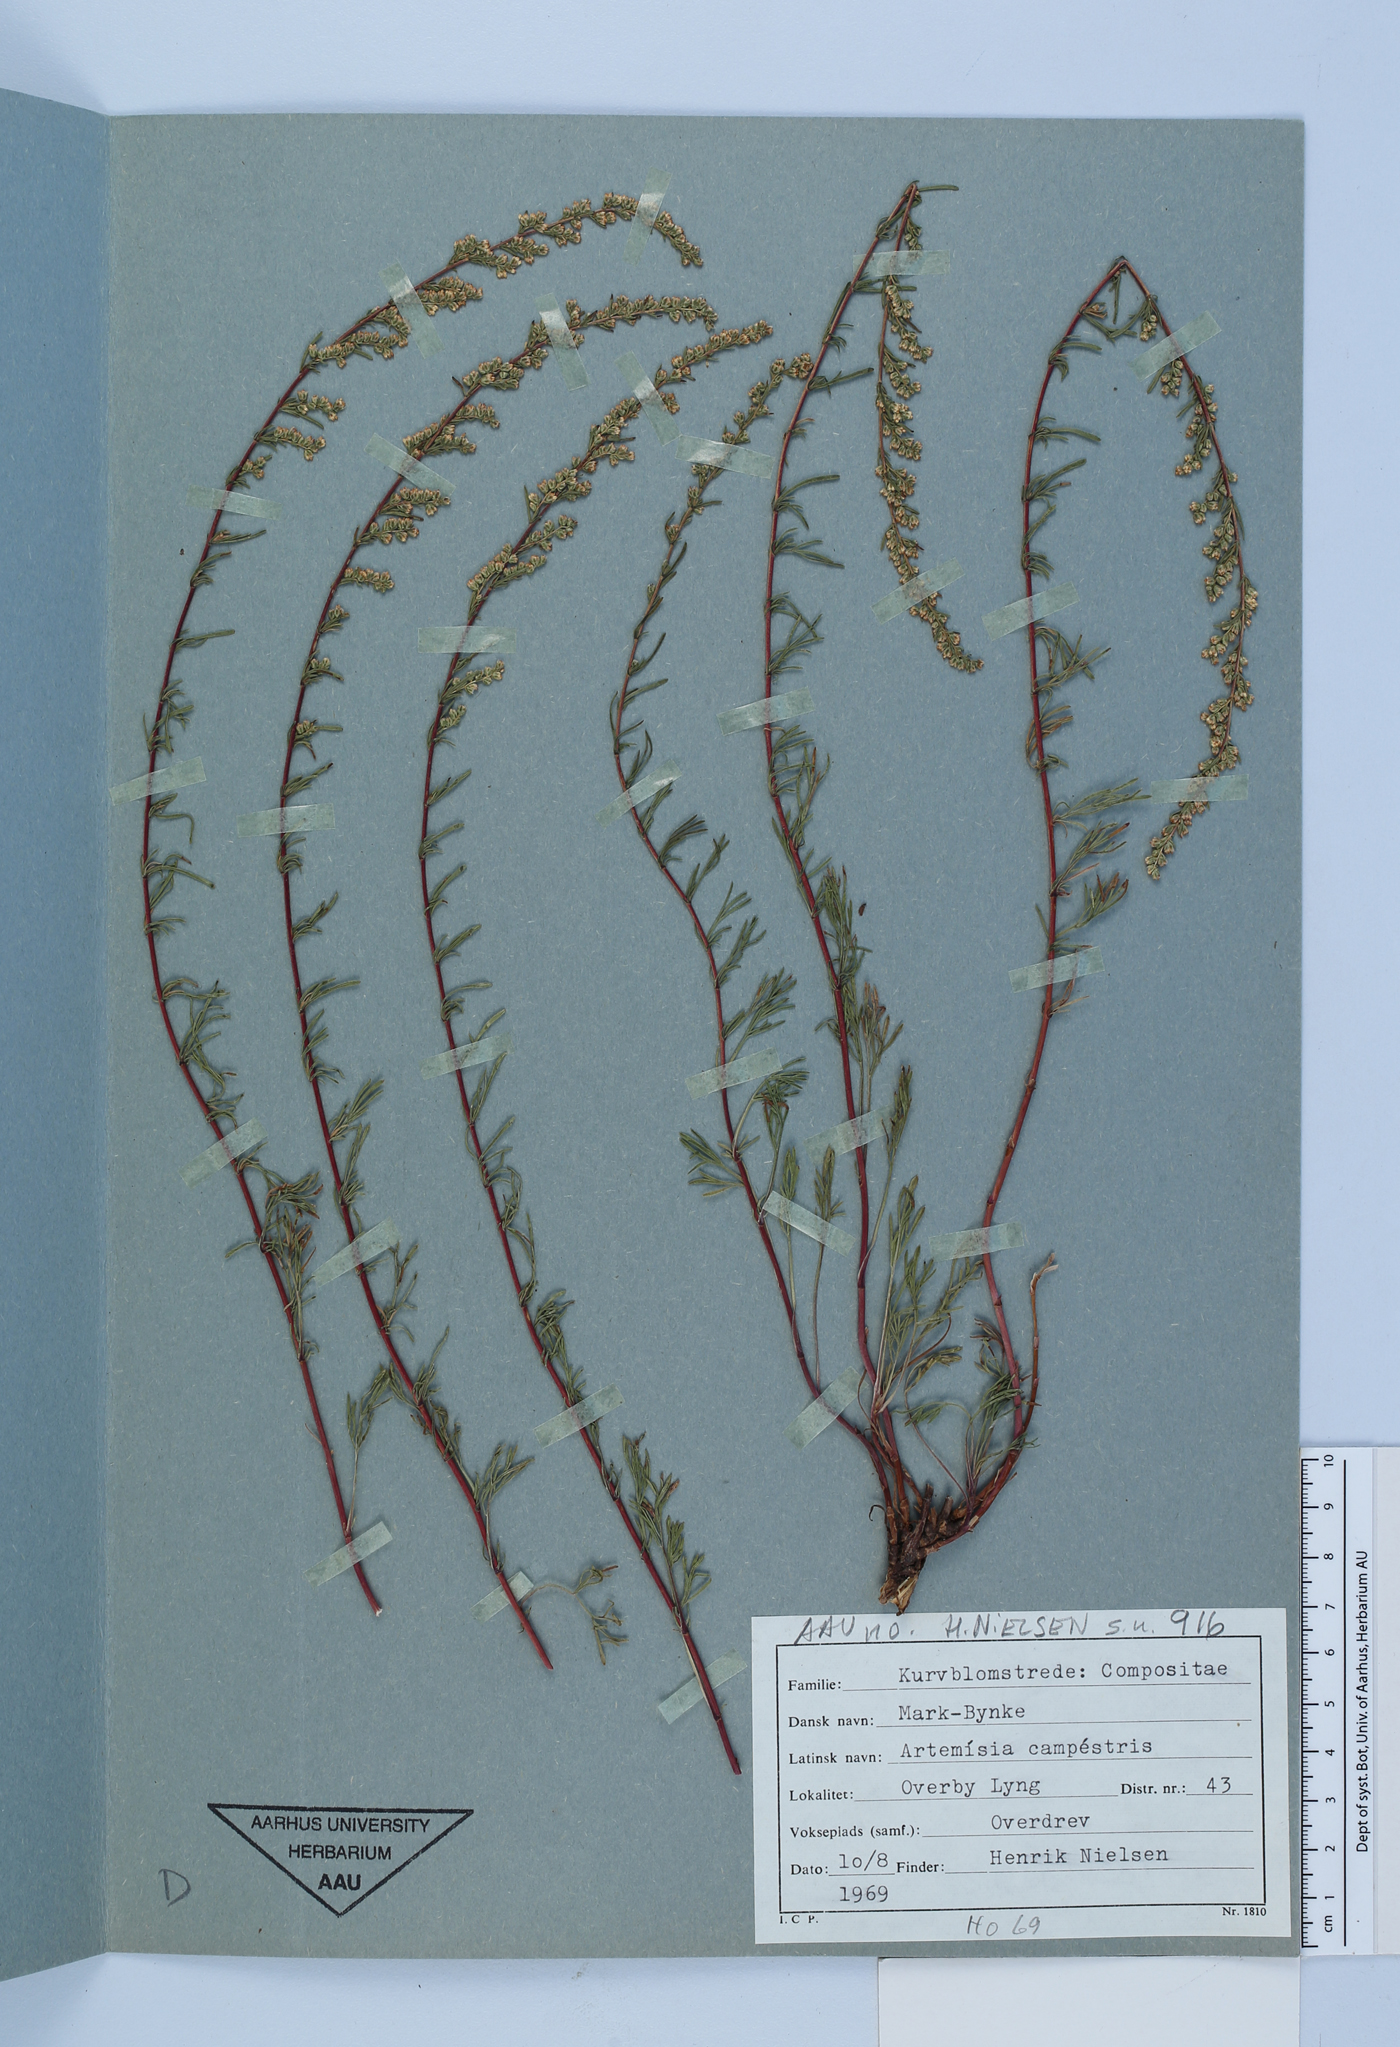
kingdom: Plantae
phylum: Tracheophyta
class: Magnoliopsida
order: Asterales
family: Asteraceae
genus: Artemisia
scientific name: Artemisia campestris
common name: Field wormwood
